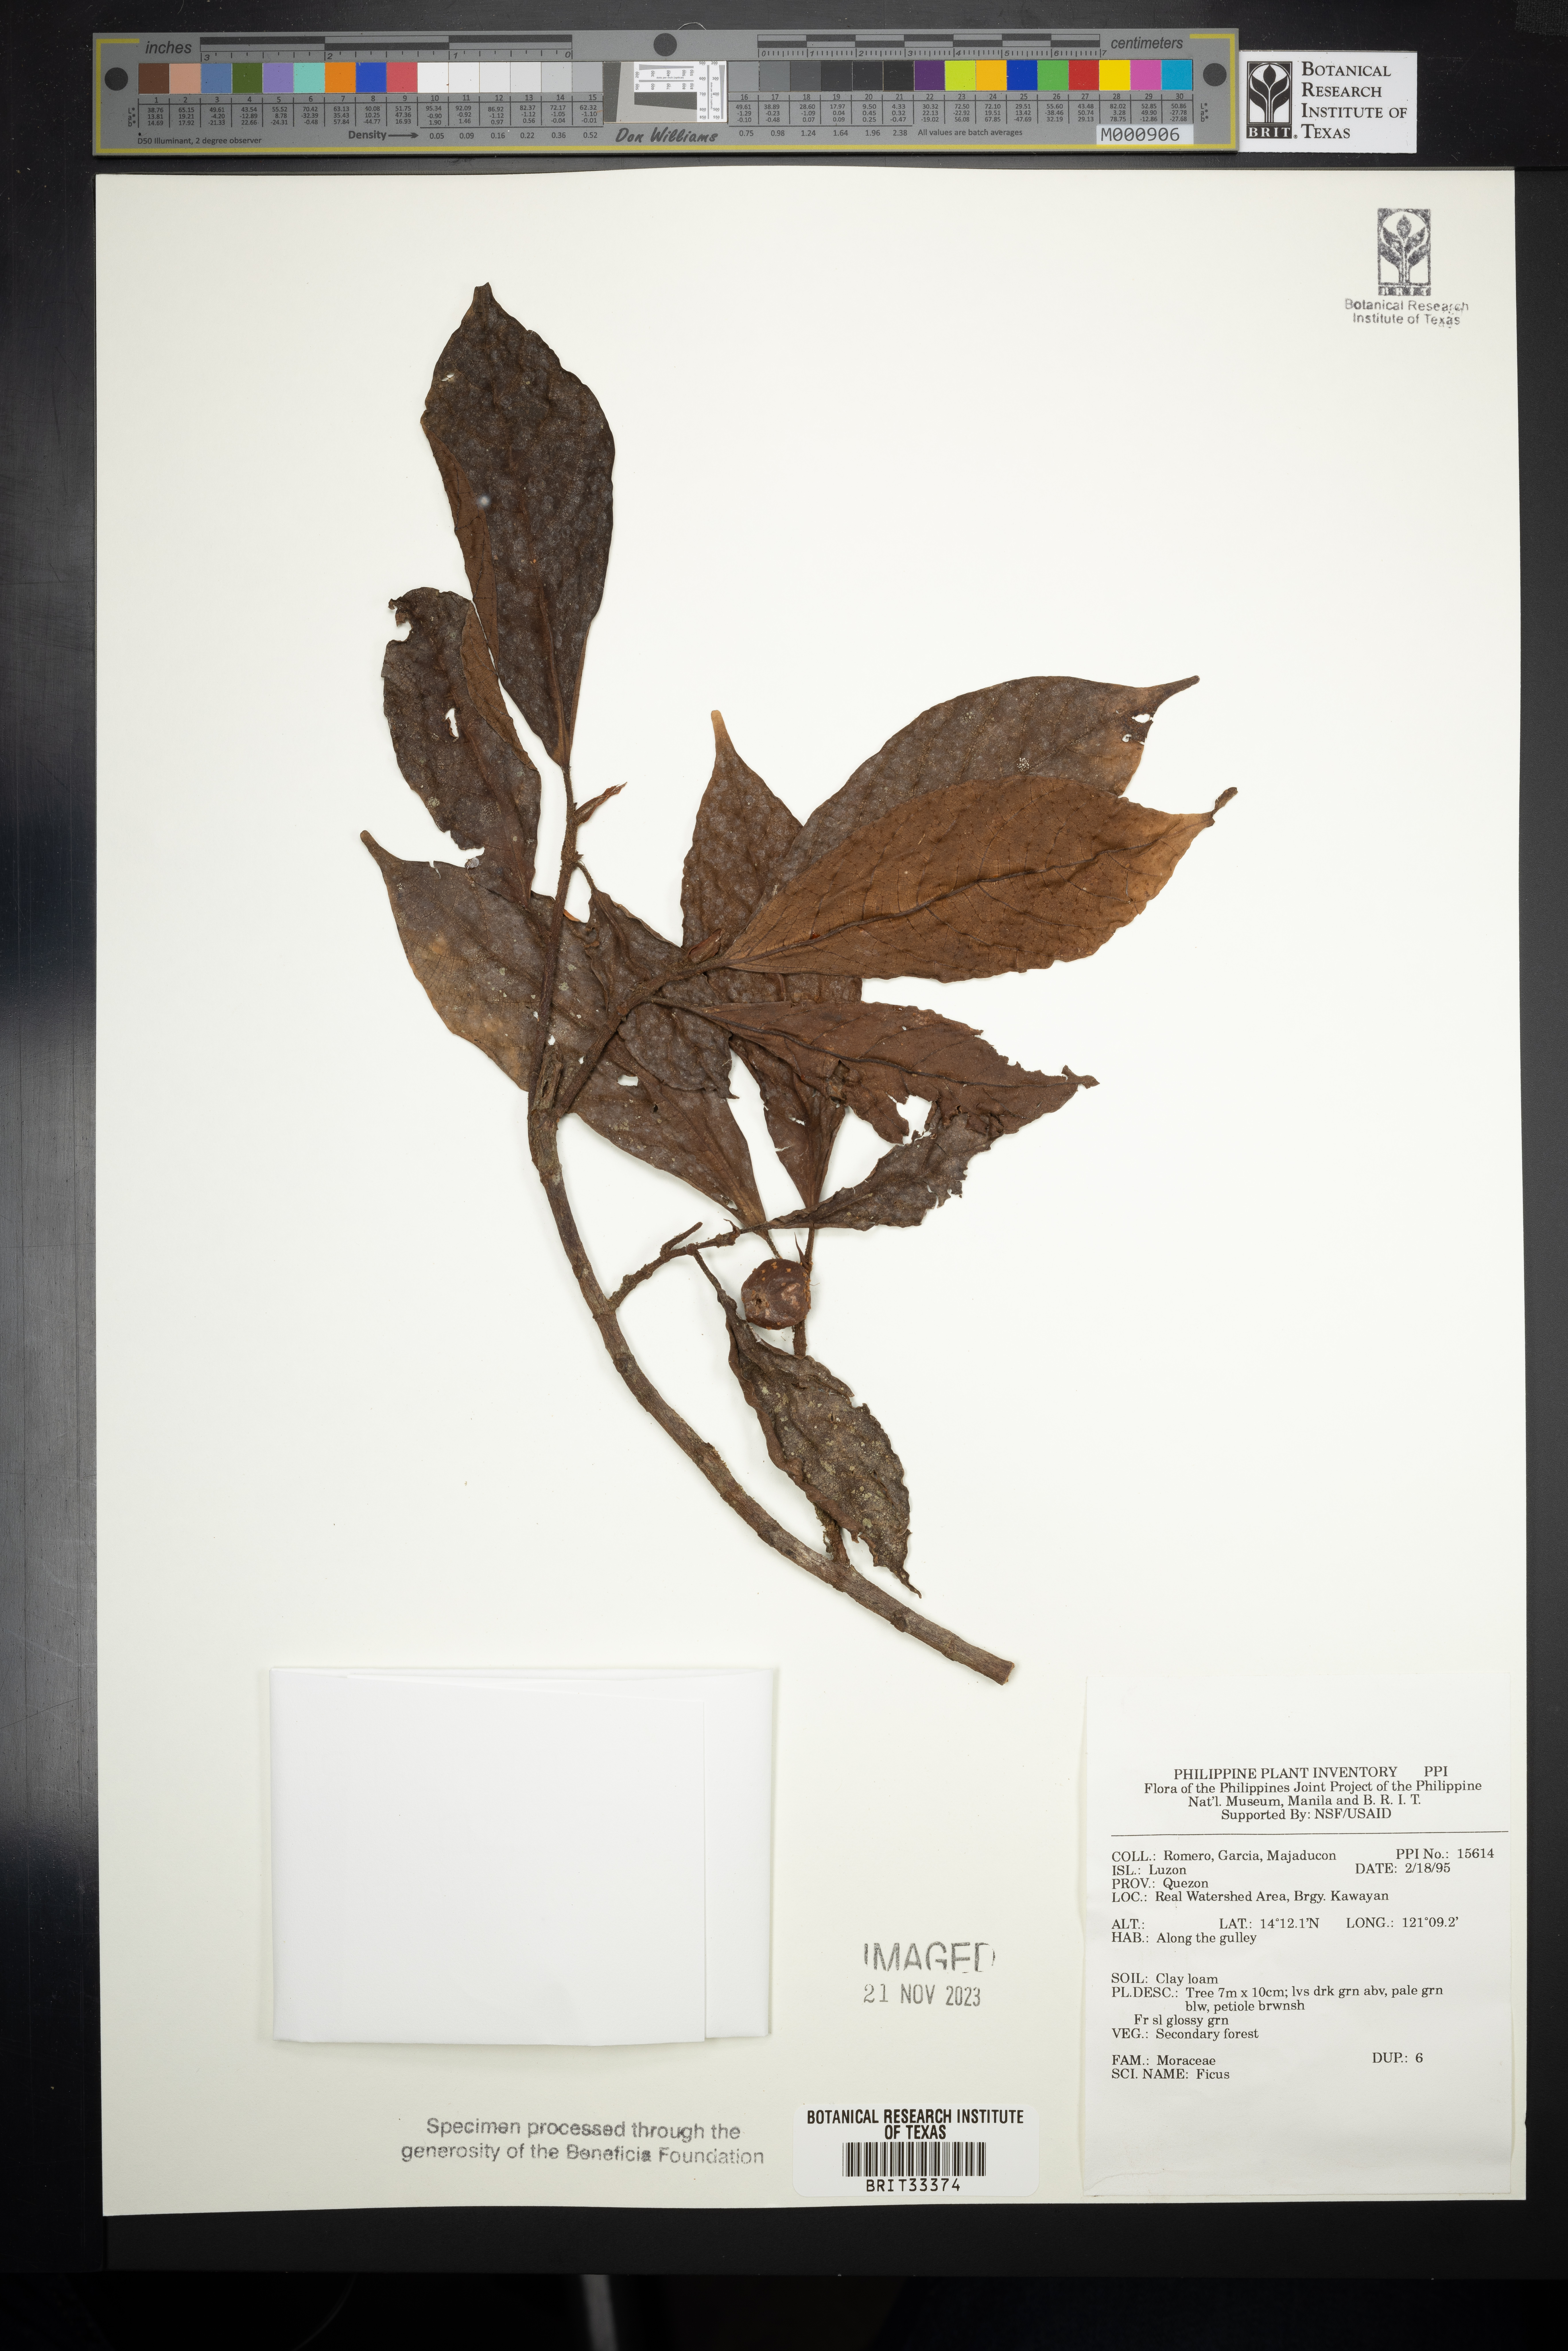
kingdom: Plantae
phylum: Tracheophyta
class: Magnoliopsida
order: Rosales
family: Moraceae
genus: Ficus
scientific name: Ficus
